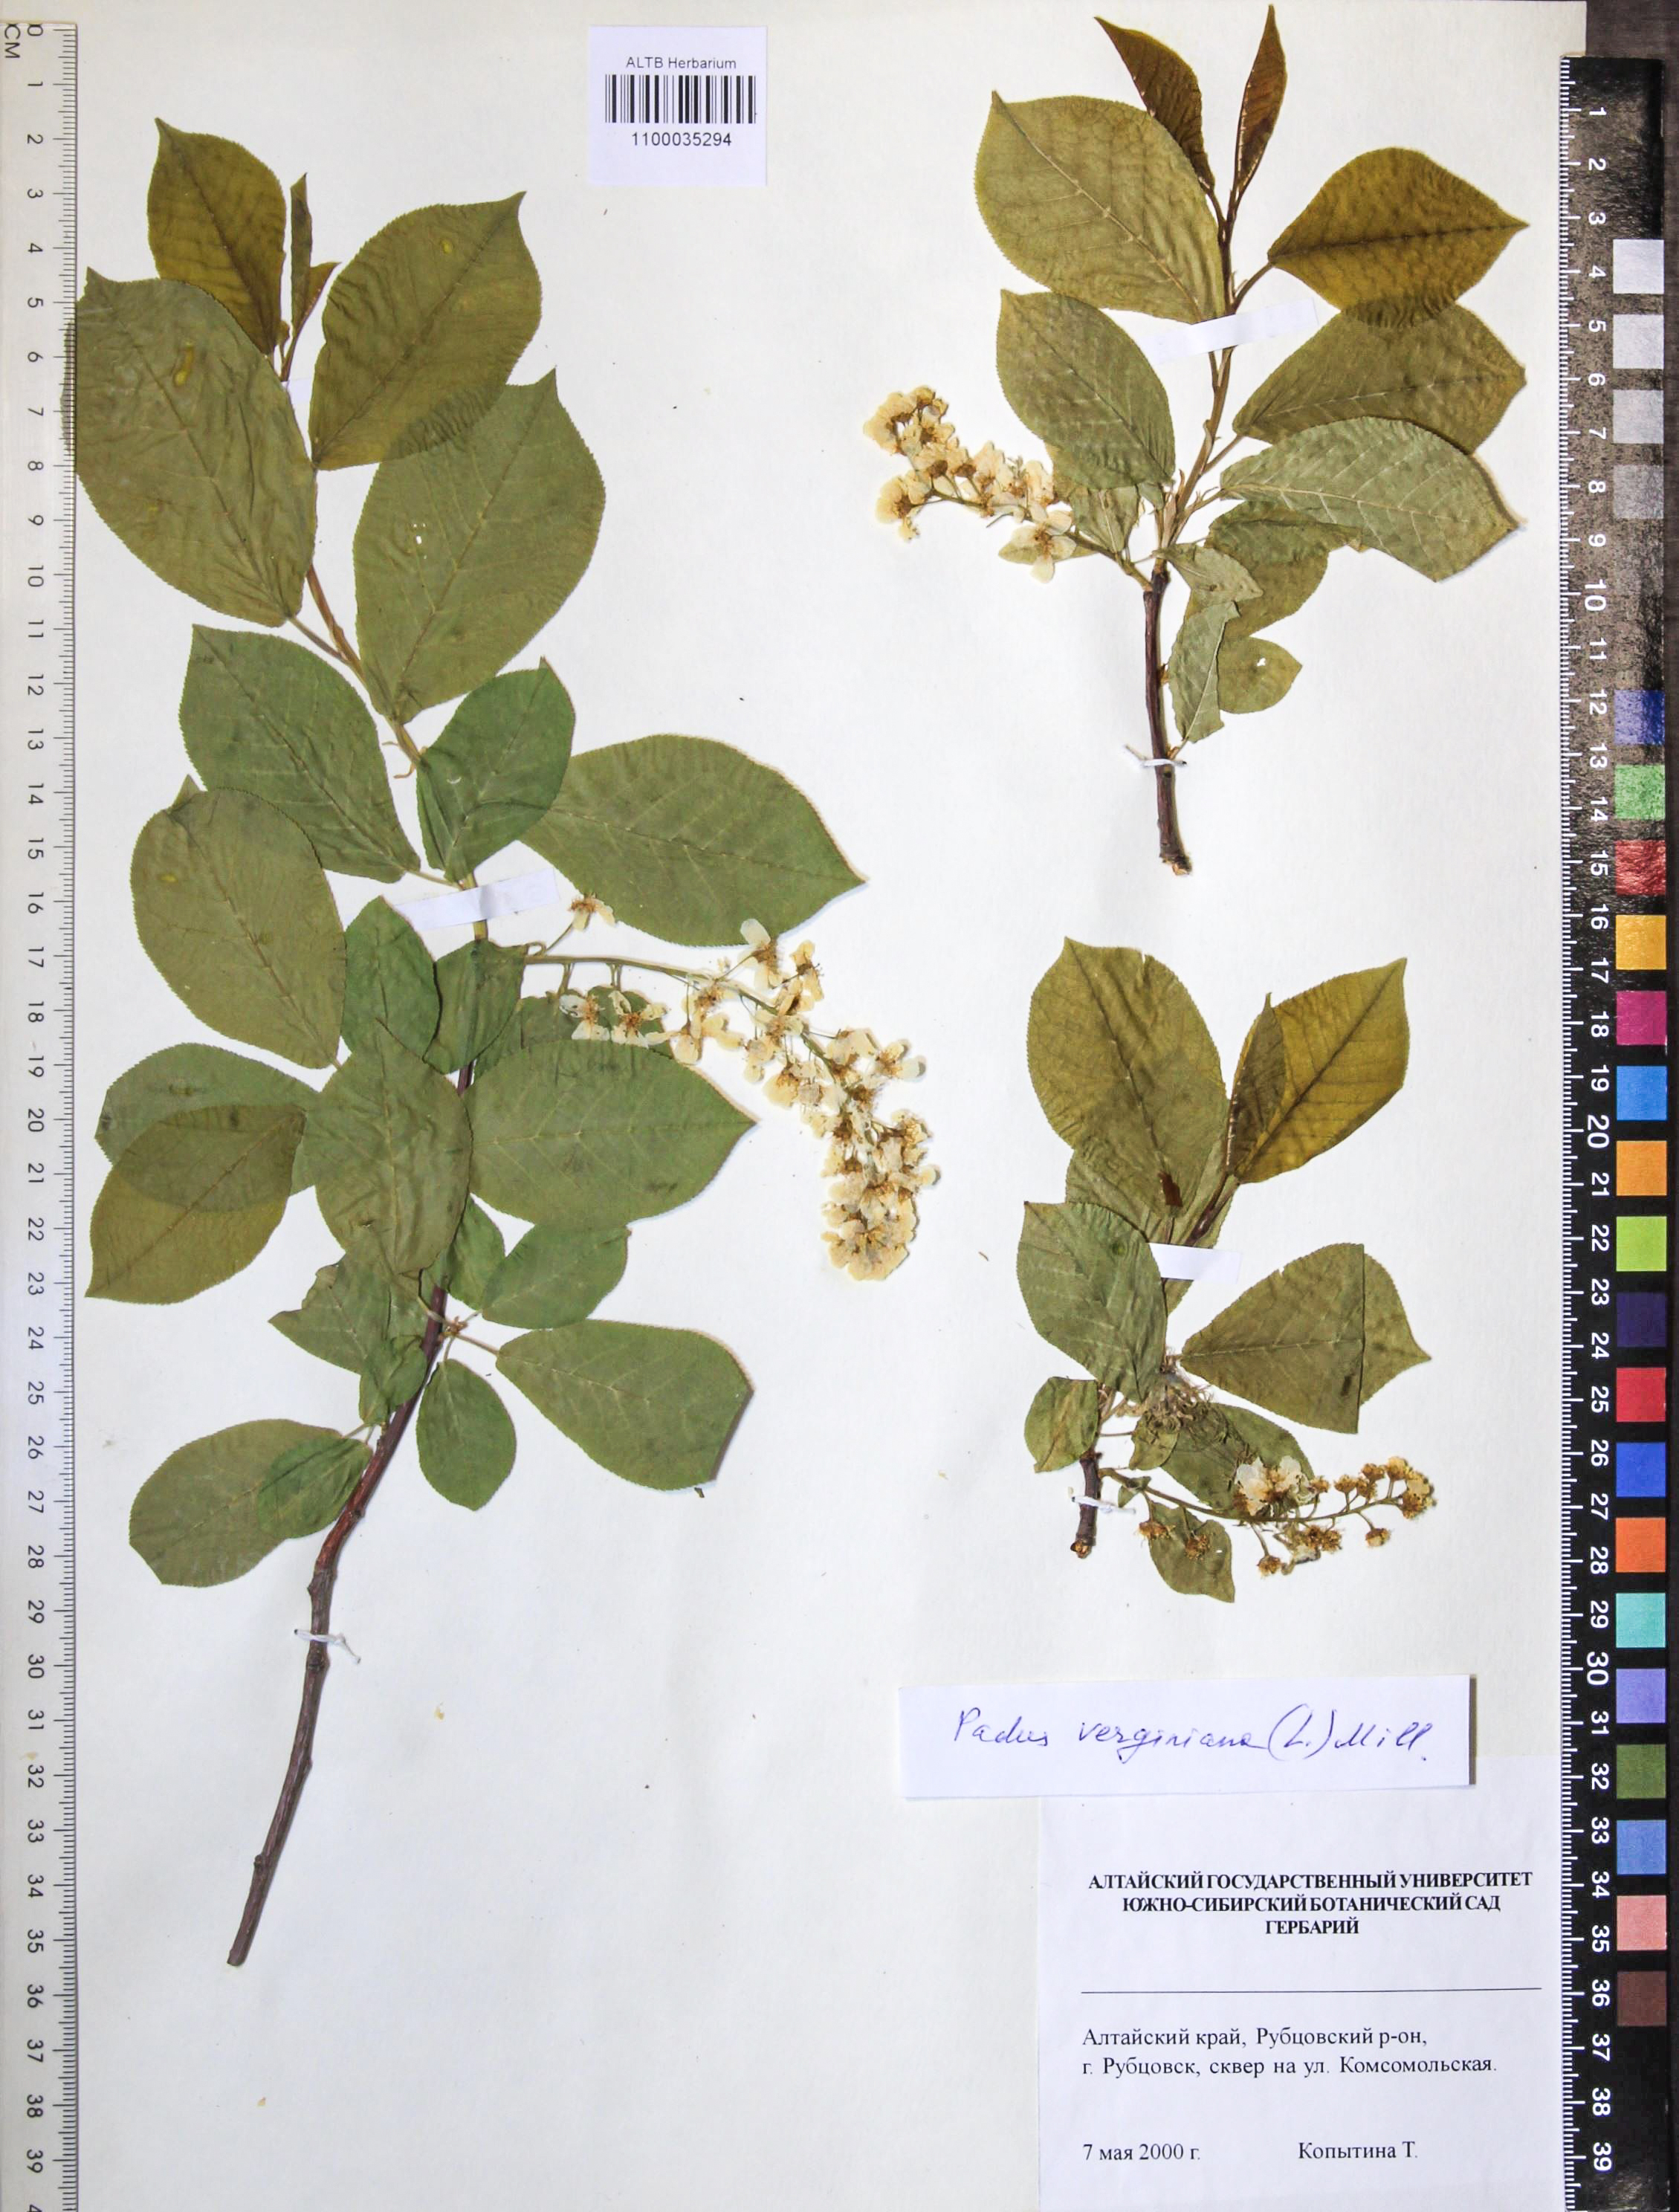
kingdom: Plantae
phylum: Tracheophyta
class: Magnoliopsida
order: Rosales
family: Rosaceae
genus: Prunus
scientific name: Prunus virginiana
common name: Chokecherry
